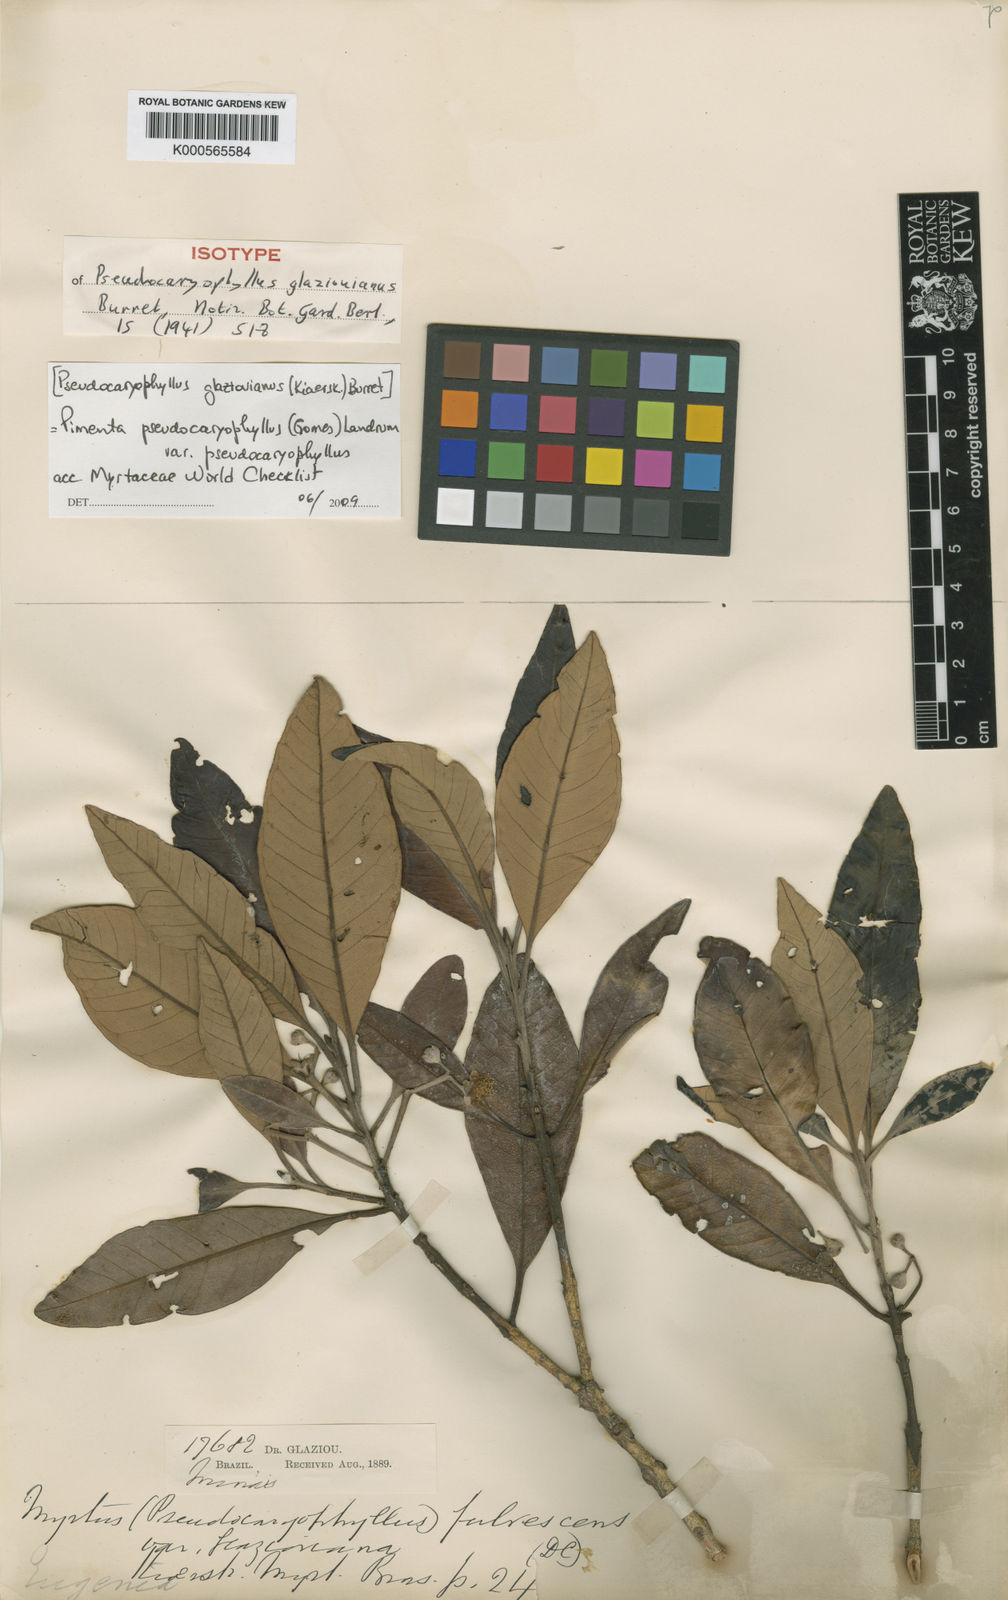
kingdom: Plantae
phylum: Tracheophyta
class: Magnoliopsida
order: Myrtales
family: Myrtaceae
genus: Pimenta
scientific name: Pimenta pseudocaryophyllus
